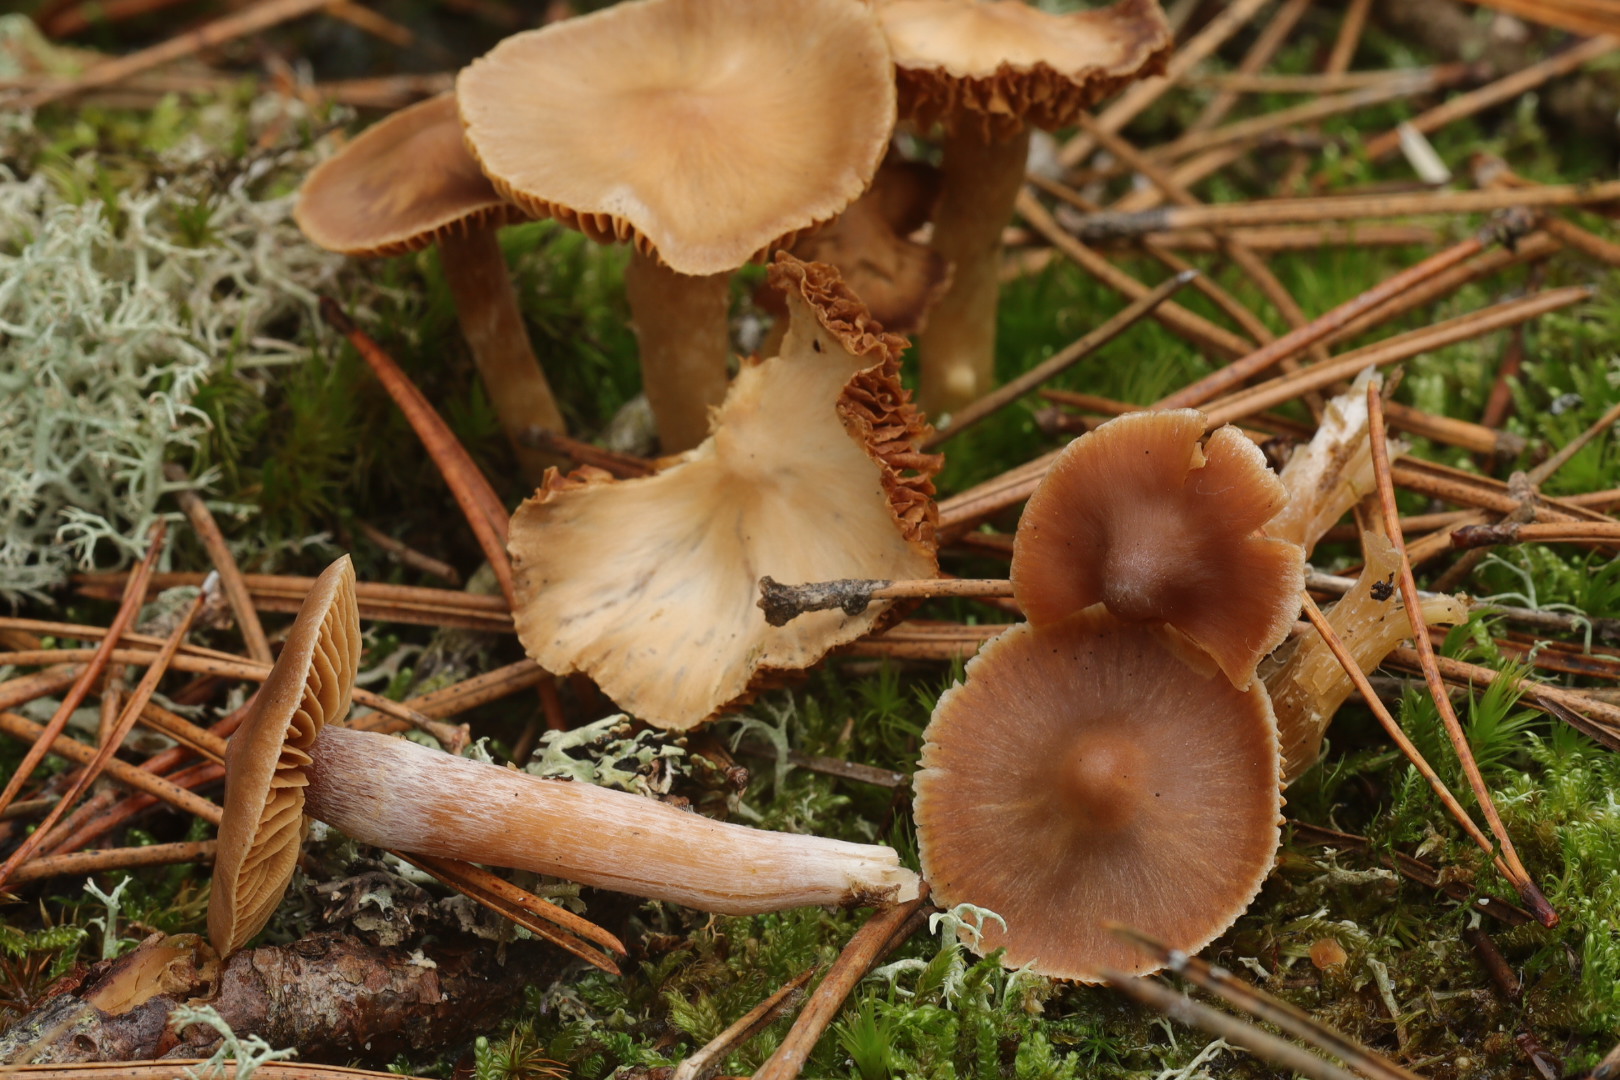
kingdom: Fungi
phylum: Basidiomycota
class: Agaricomycetes
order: Agaricales
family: Cortinariaceae
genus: Cortinarius
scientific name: Cortinarius
